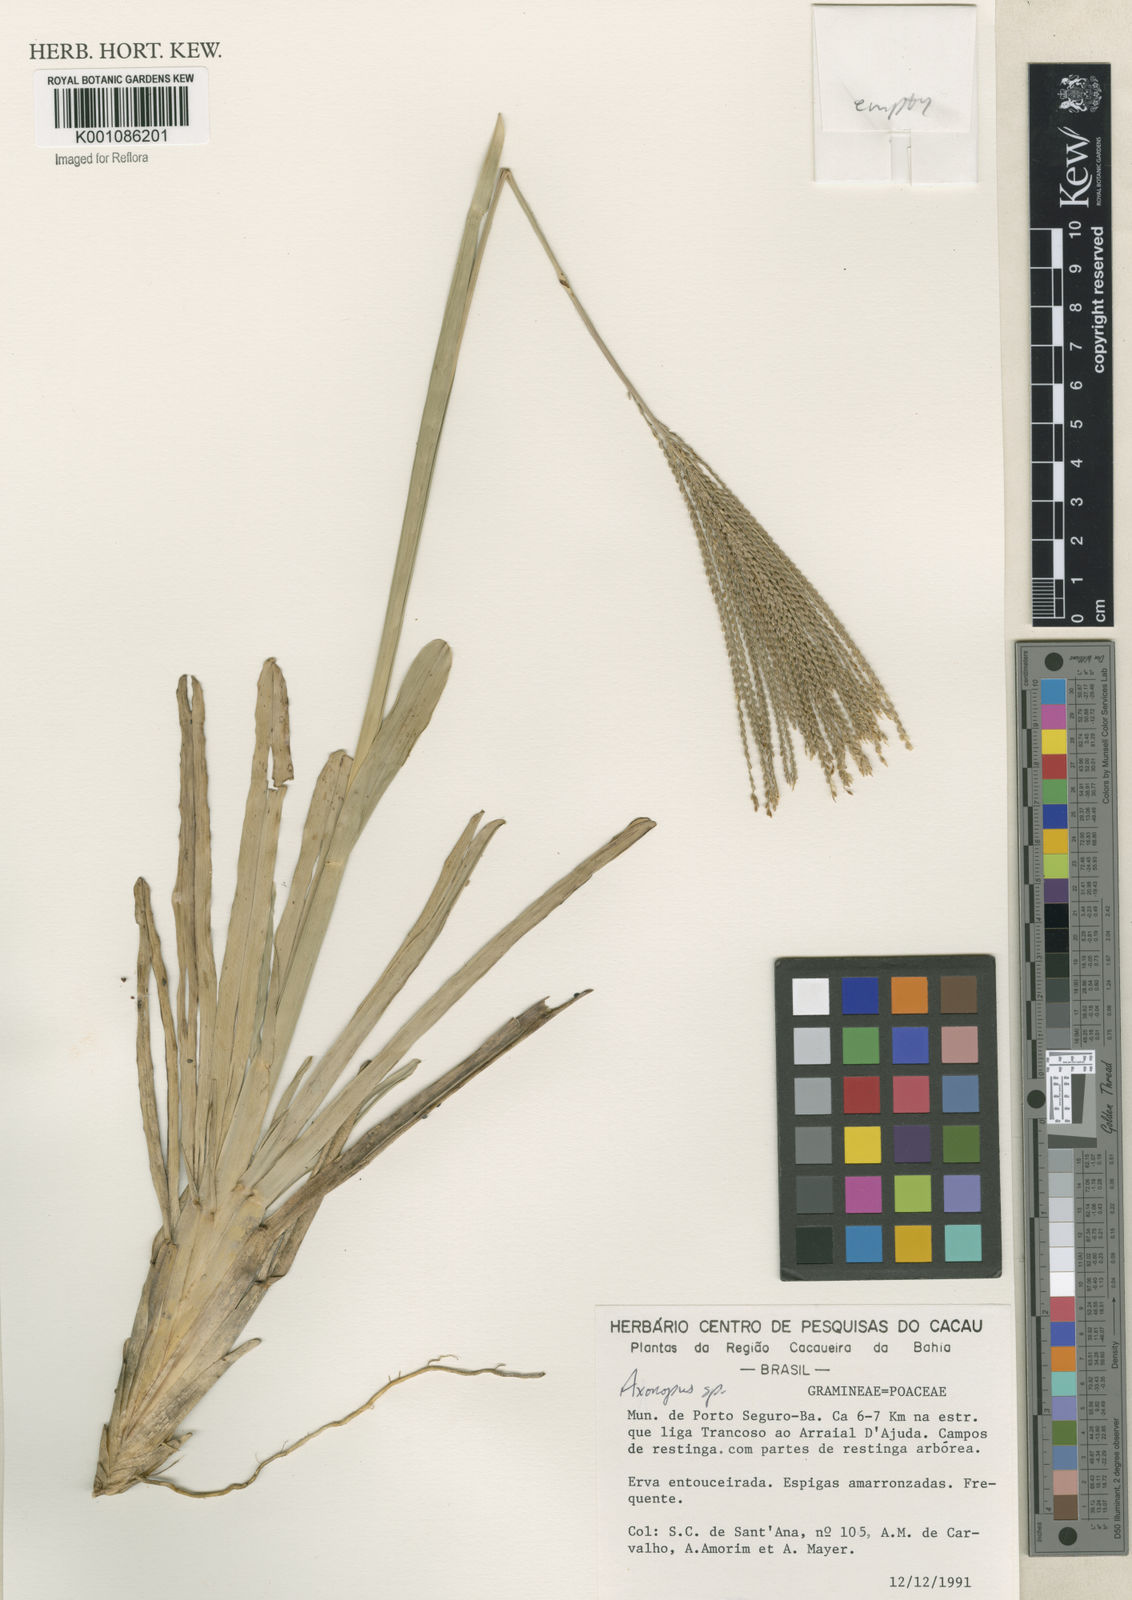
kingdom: Plantae
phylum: Tracheophyta
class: Liliopsida
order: Poales
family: Poaceae
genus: Axonopus
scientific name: Axonopus
